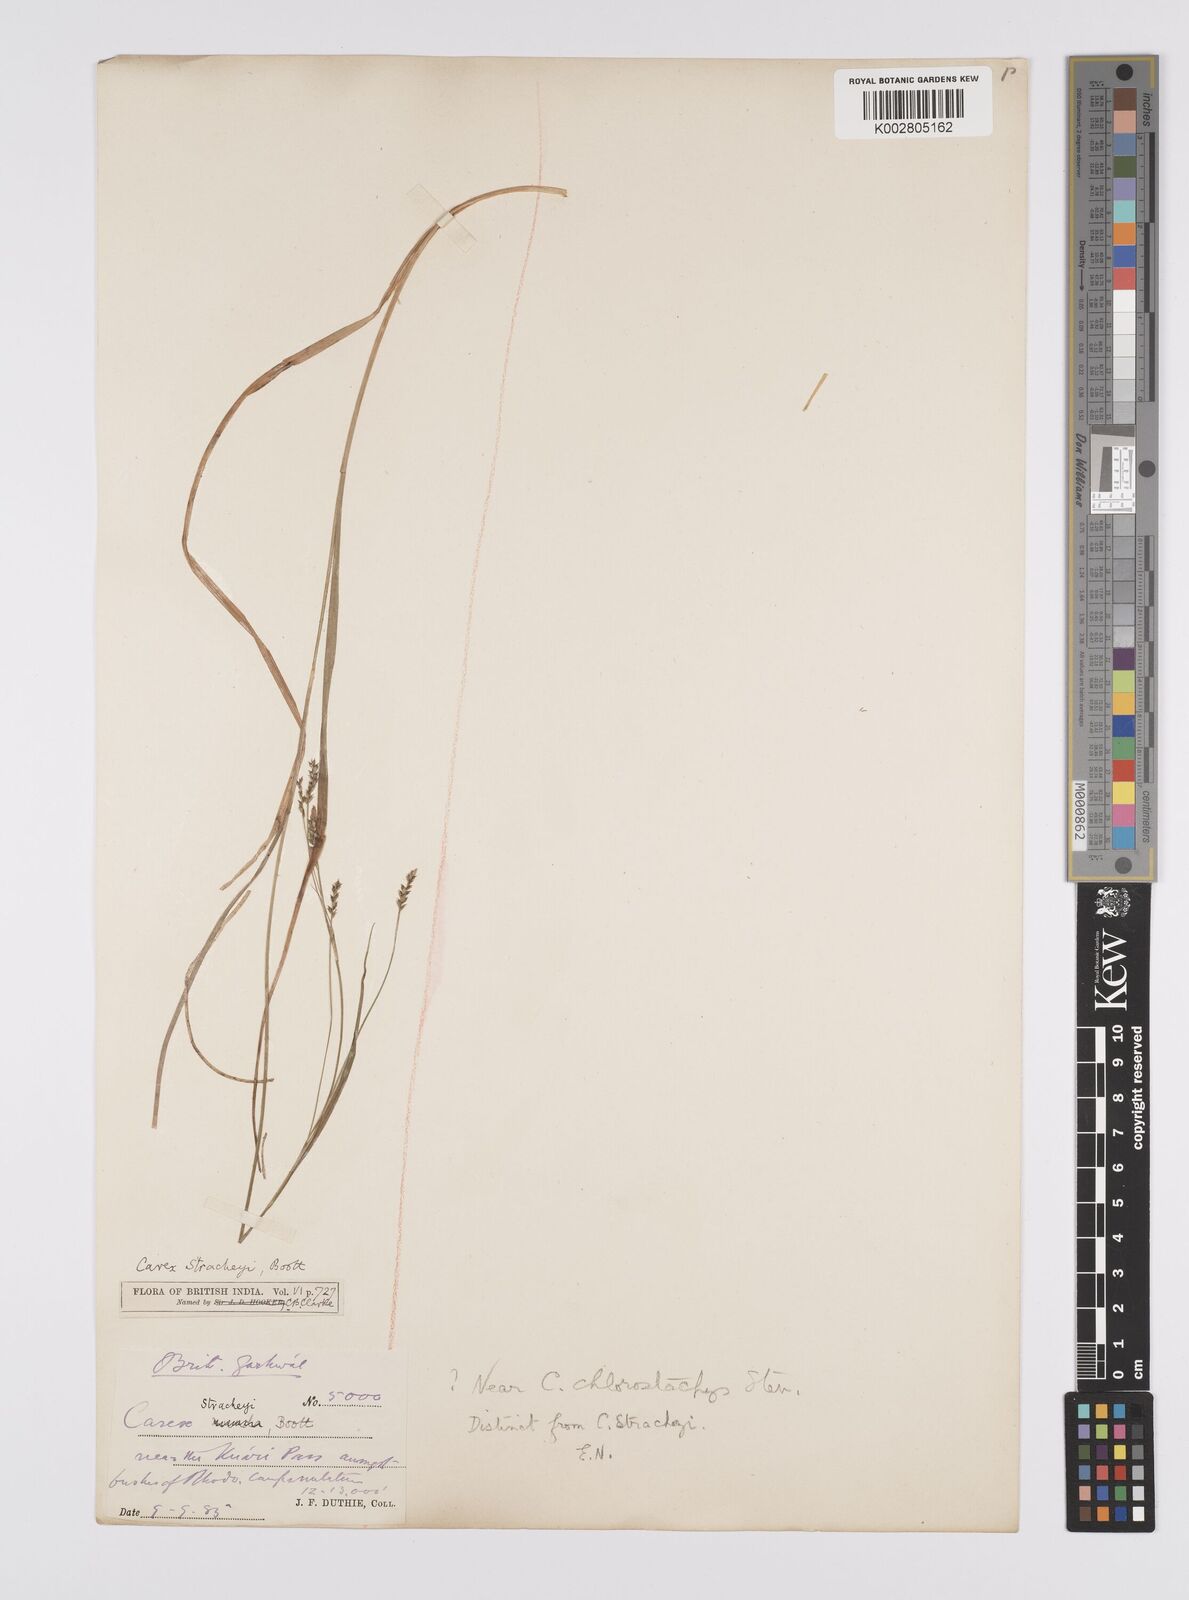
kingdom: Plantae
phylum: Tracheophyta
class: Liliopsida
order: Poales
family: Cyperaceae
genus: Carex
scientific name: Carex chlorostachys
